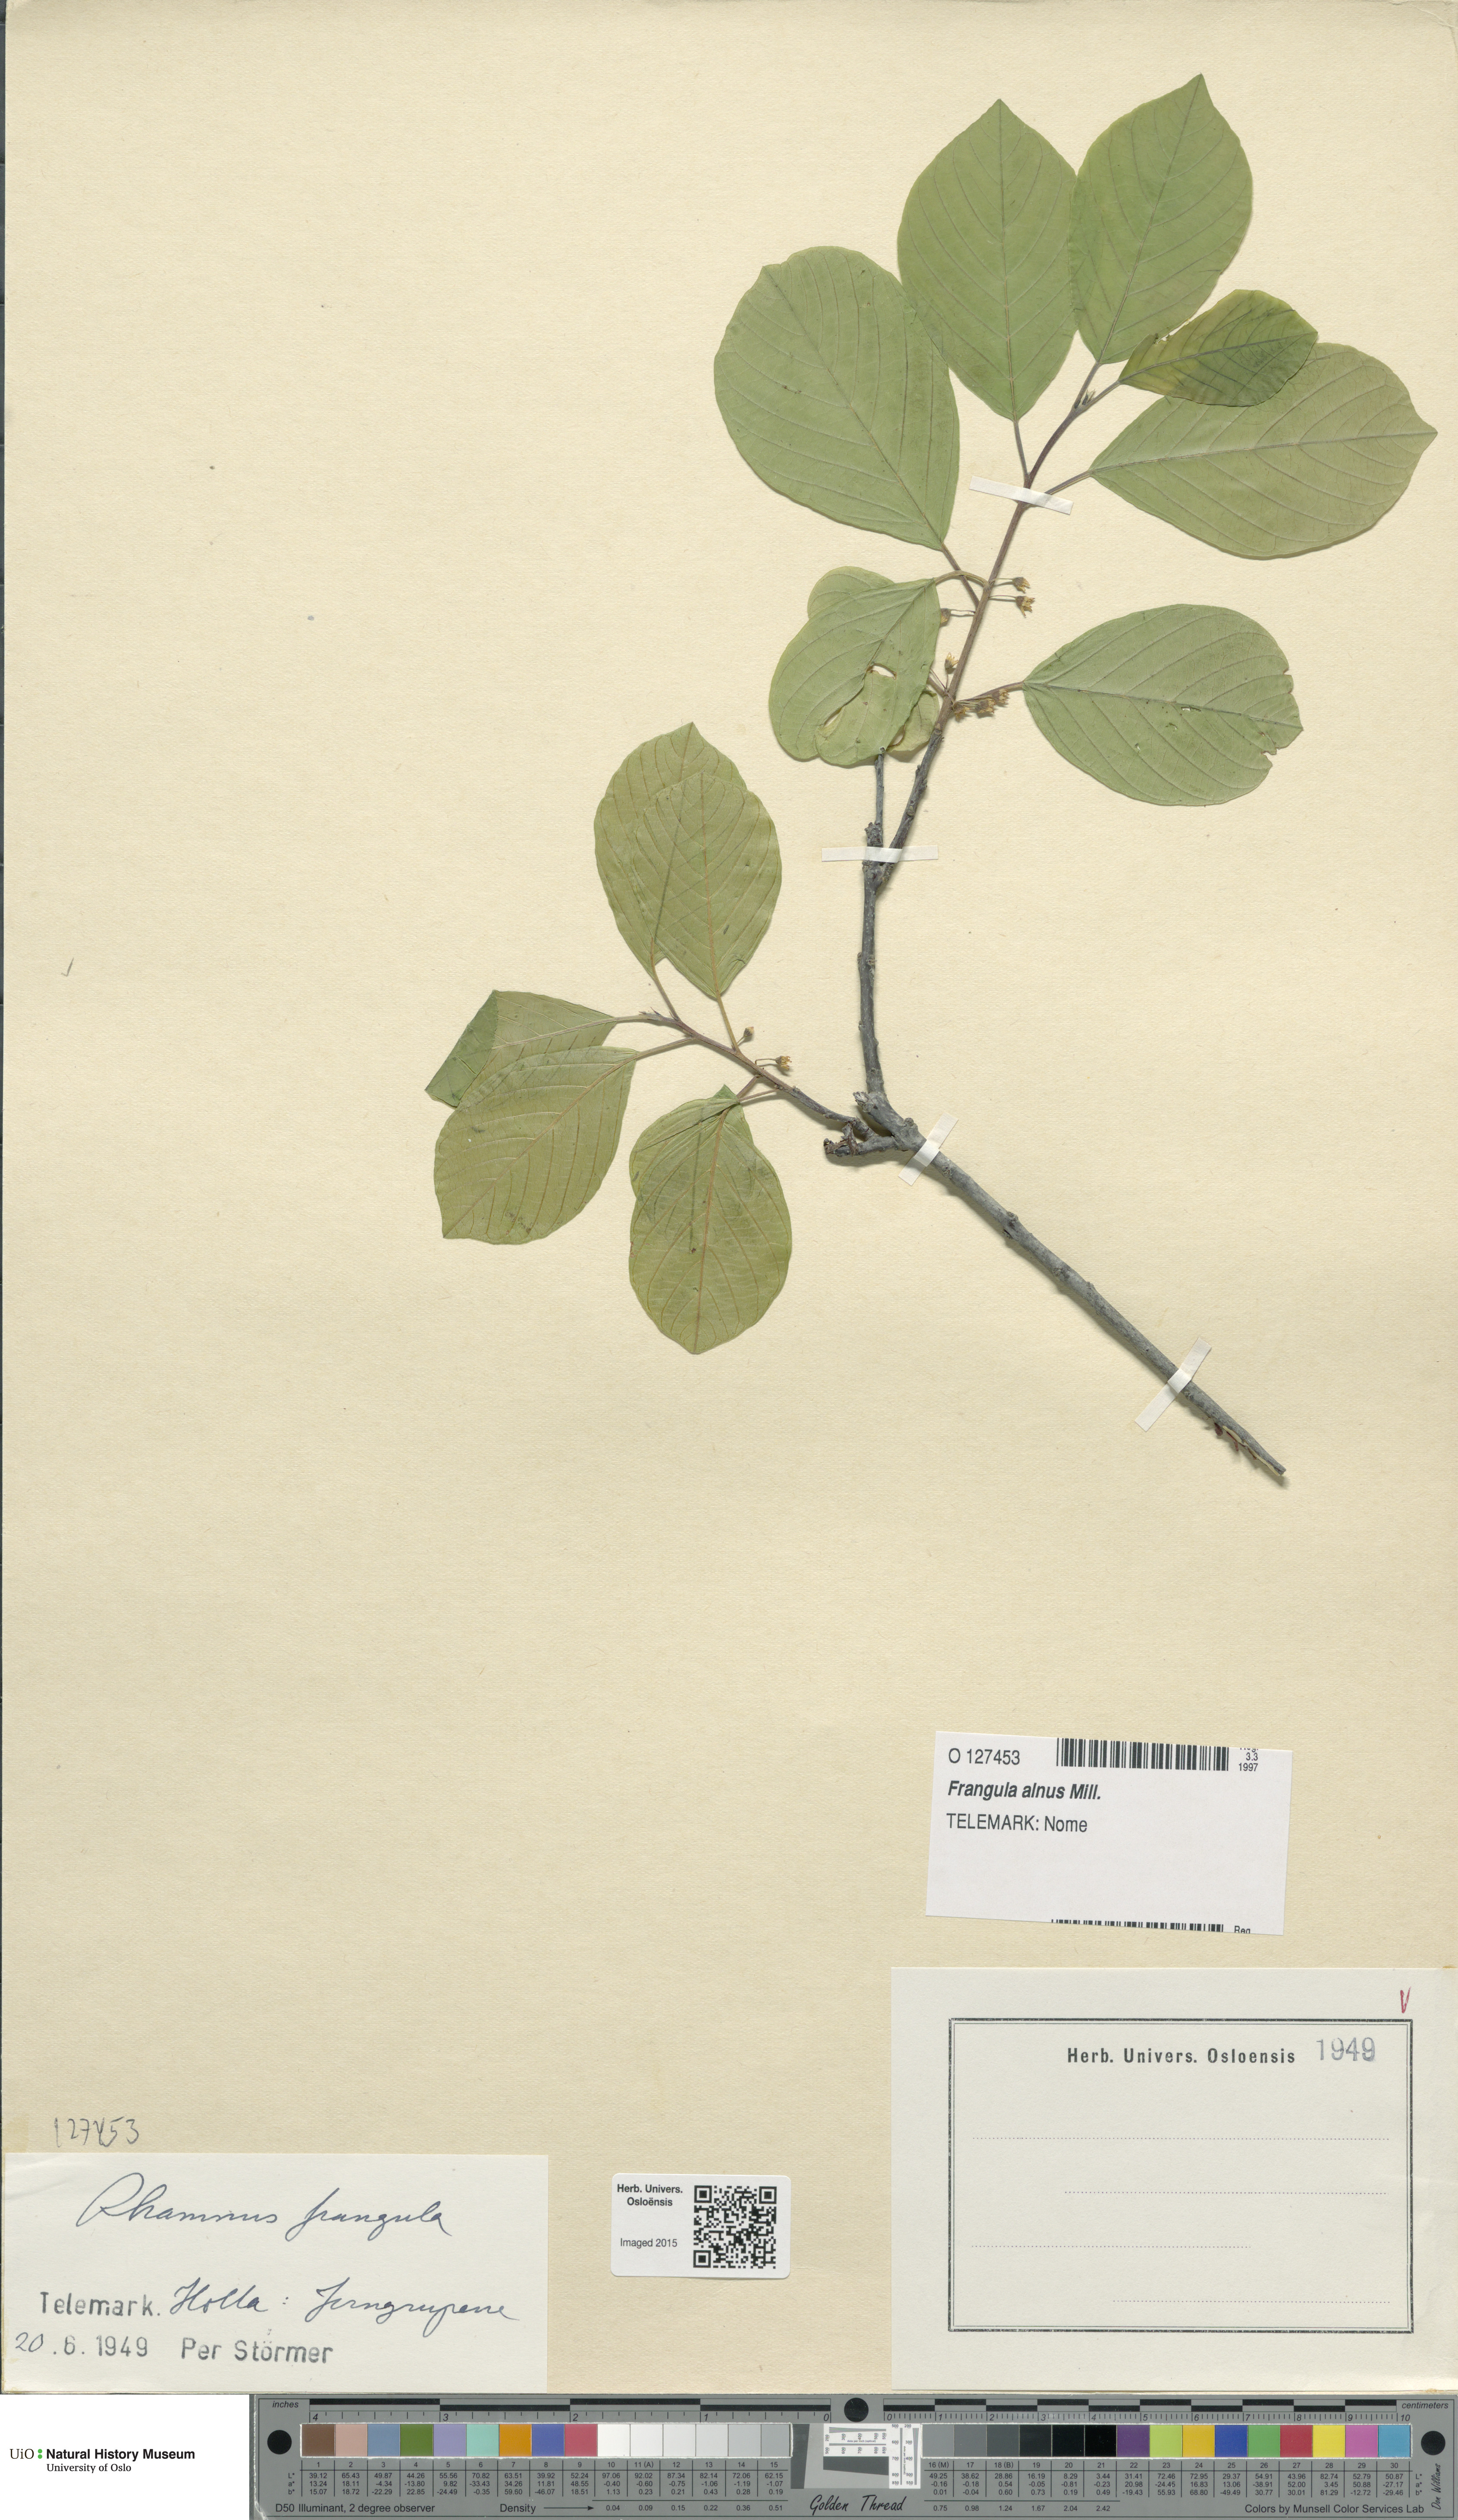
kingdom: Plantae
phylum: Tracheophyta
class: Magnoliopsida
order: Rosales
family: Rhamnaceae
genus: Frangula
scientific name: Frangula alnus
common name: Alder buckthorn
